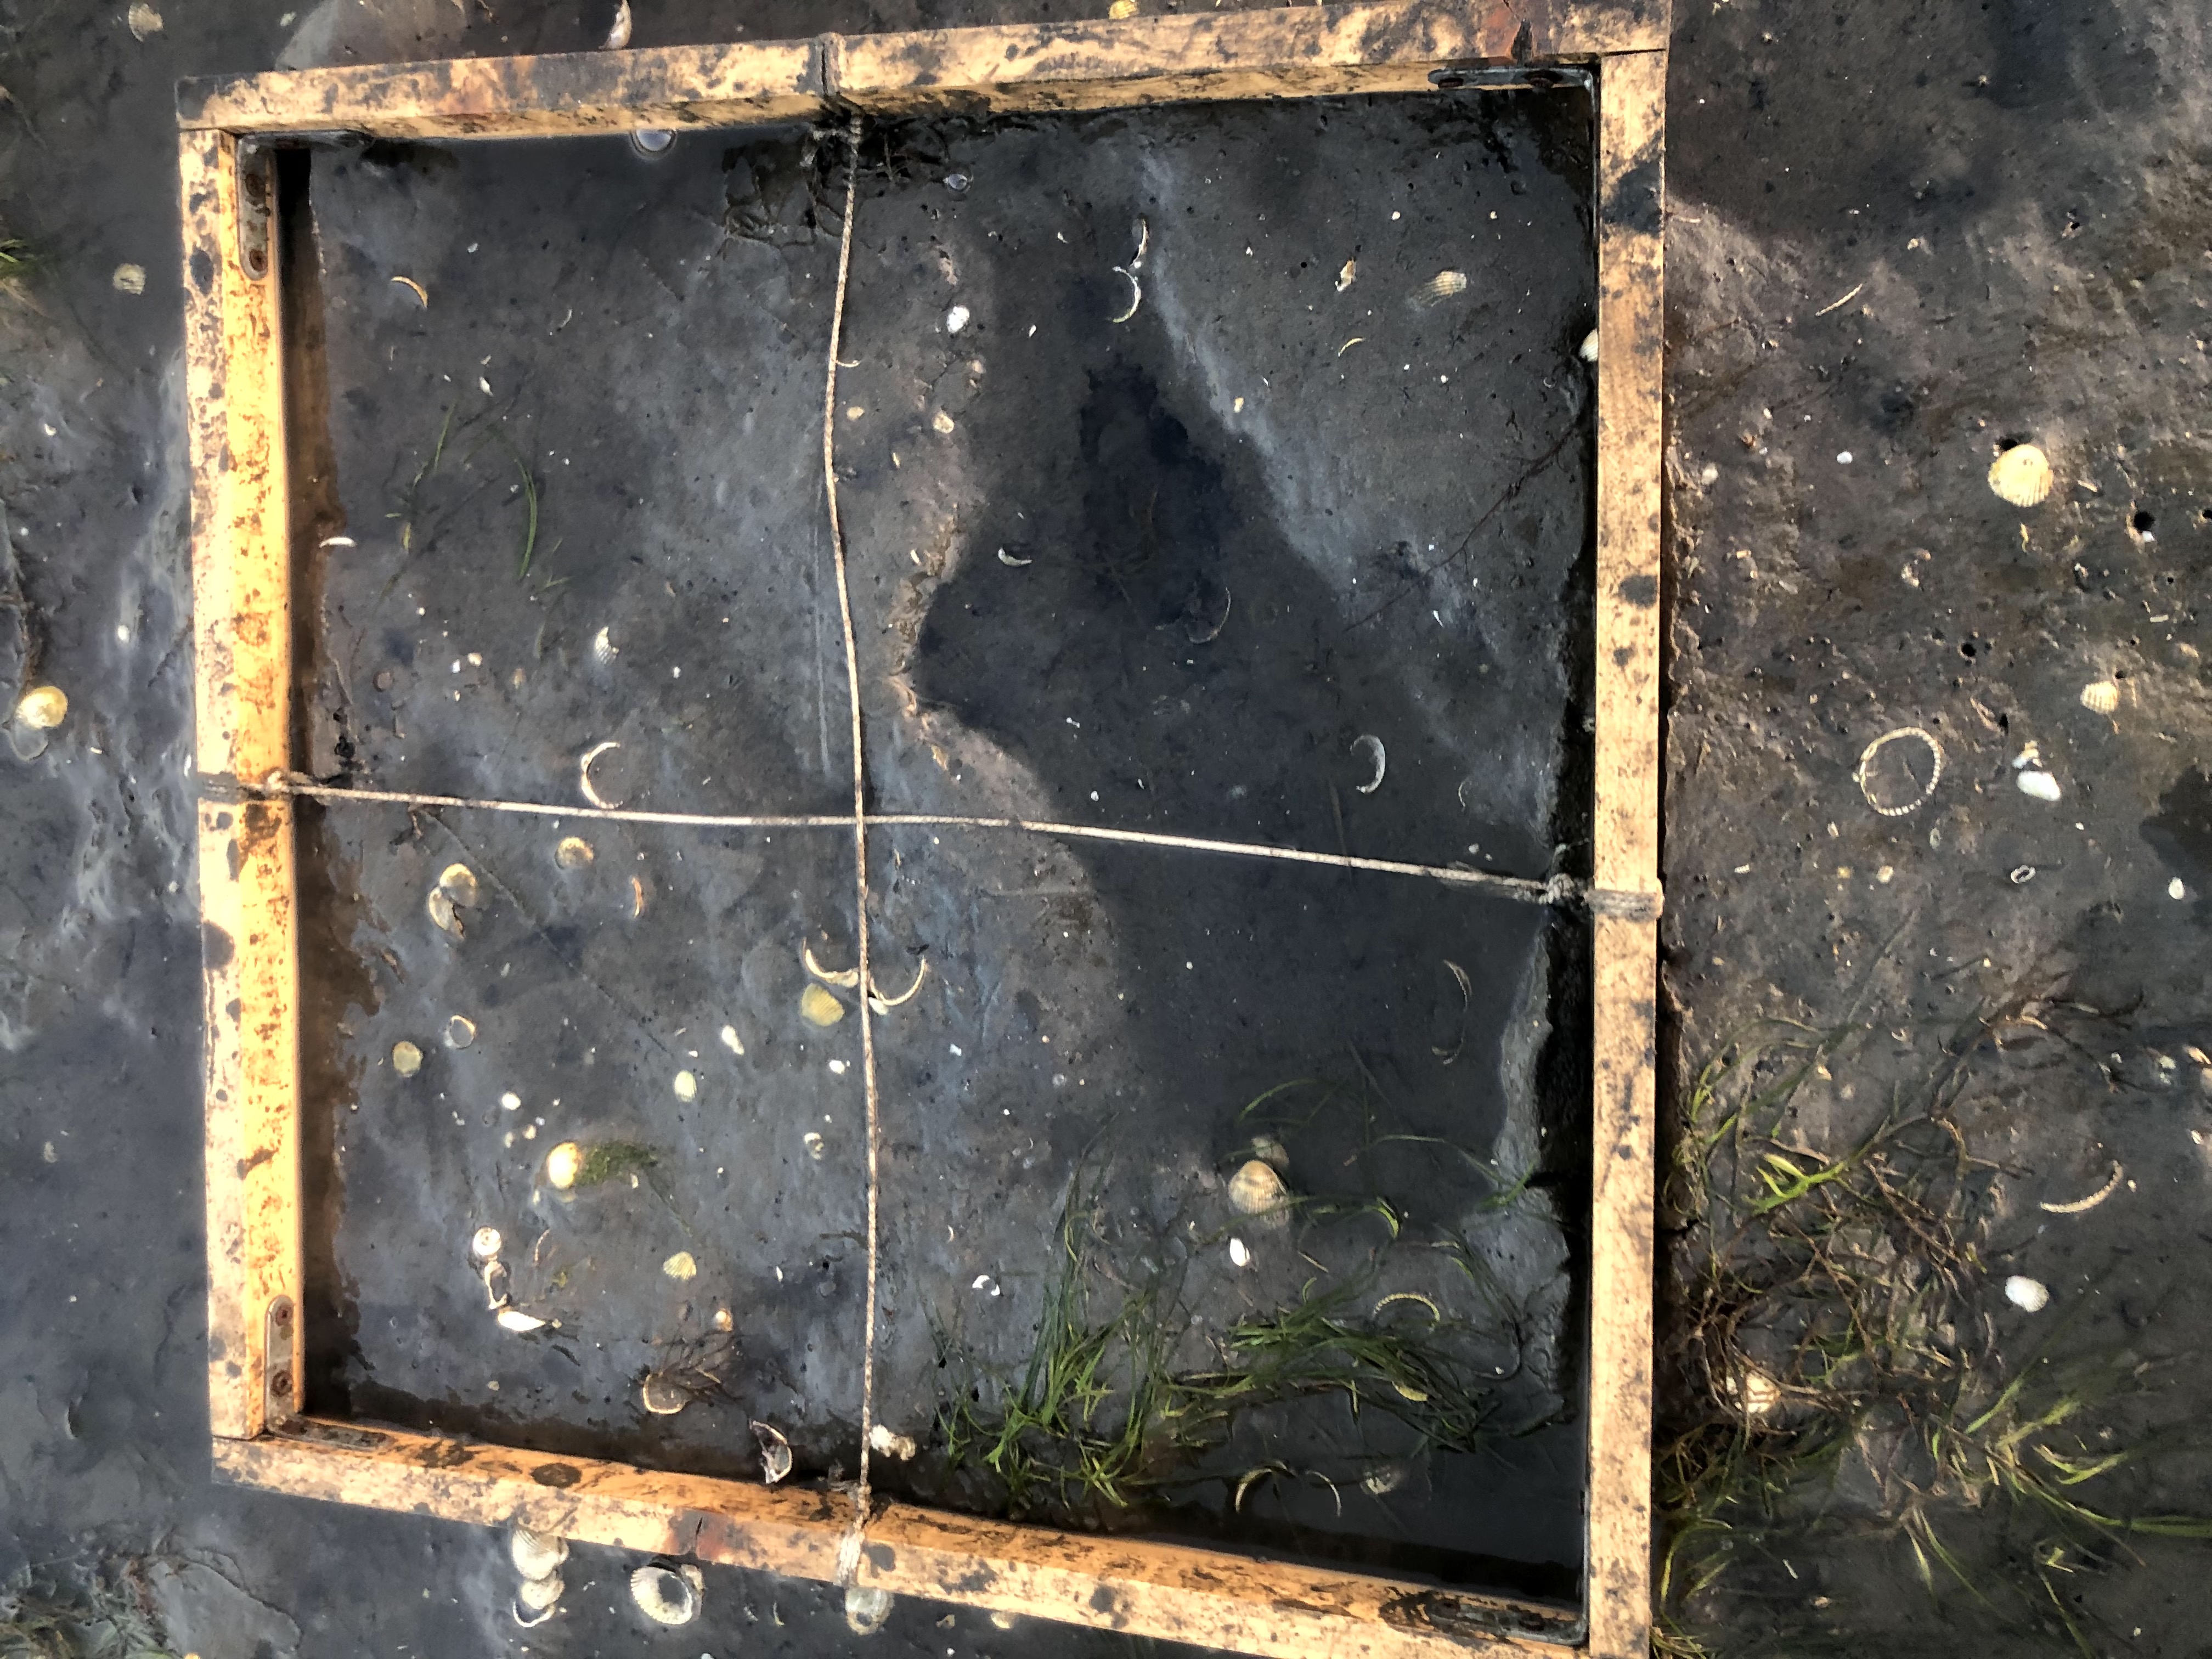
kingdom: Plantae
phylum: Tracheophyta
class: Liliopsida
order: Alismatales
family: Zosteraceae
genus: Zostera
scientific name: Zostera noltii
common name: Dwarf eelgrass
